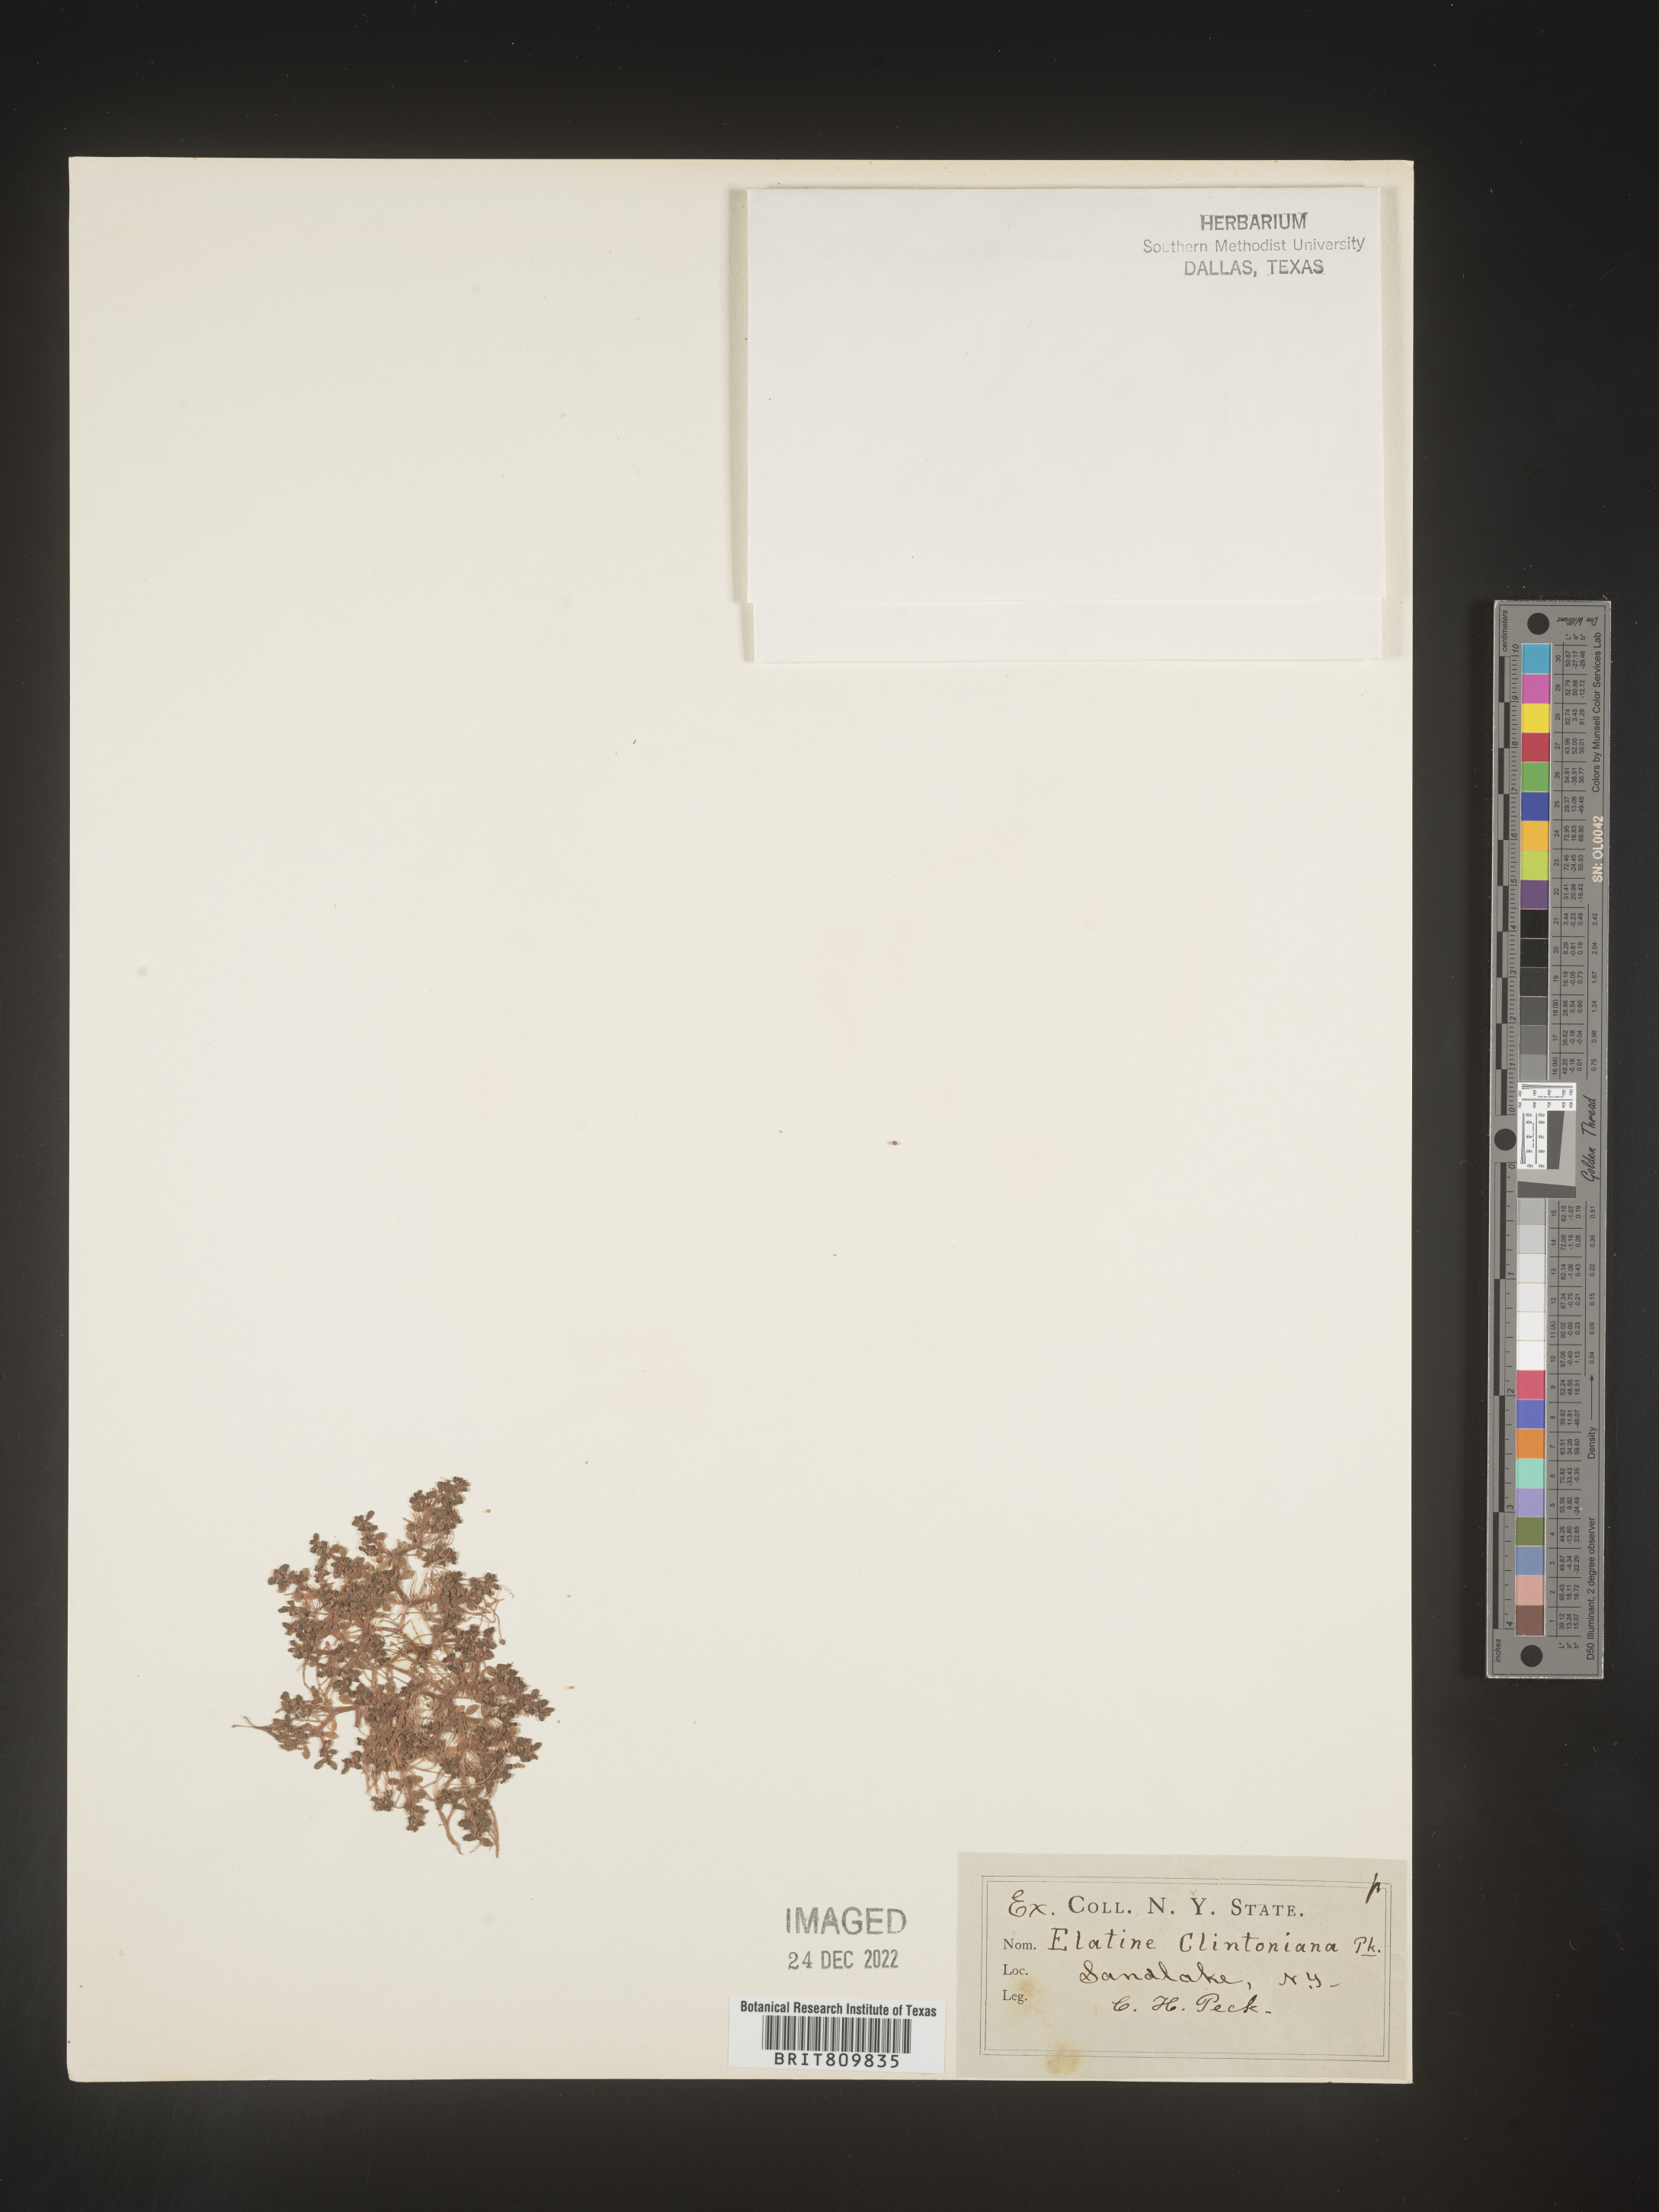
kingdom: Plantae
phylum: Tracheophyta
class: Magnoliopsida
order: Malpighiales
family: Elatinaceae
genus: Elatine
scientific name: Elatine
